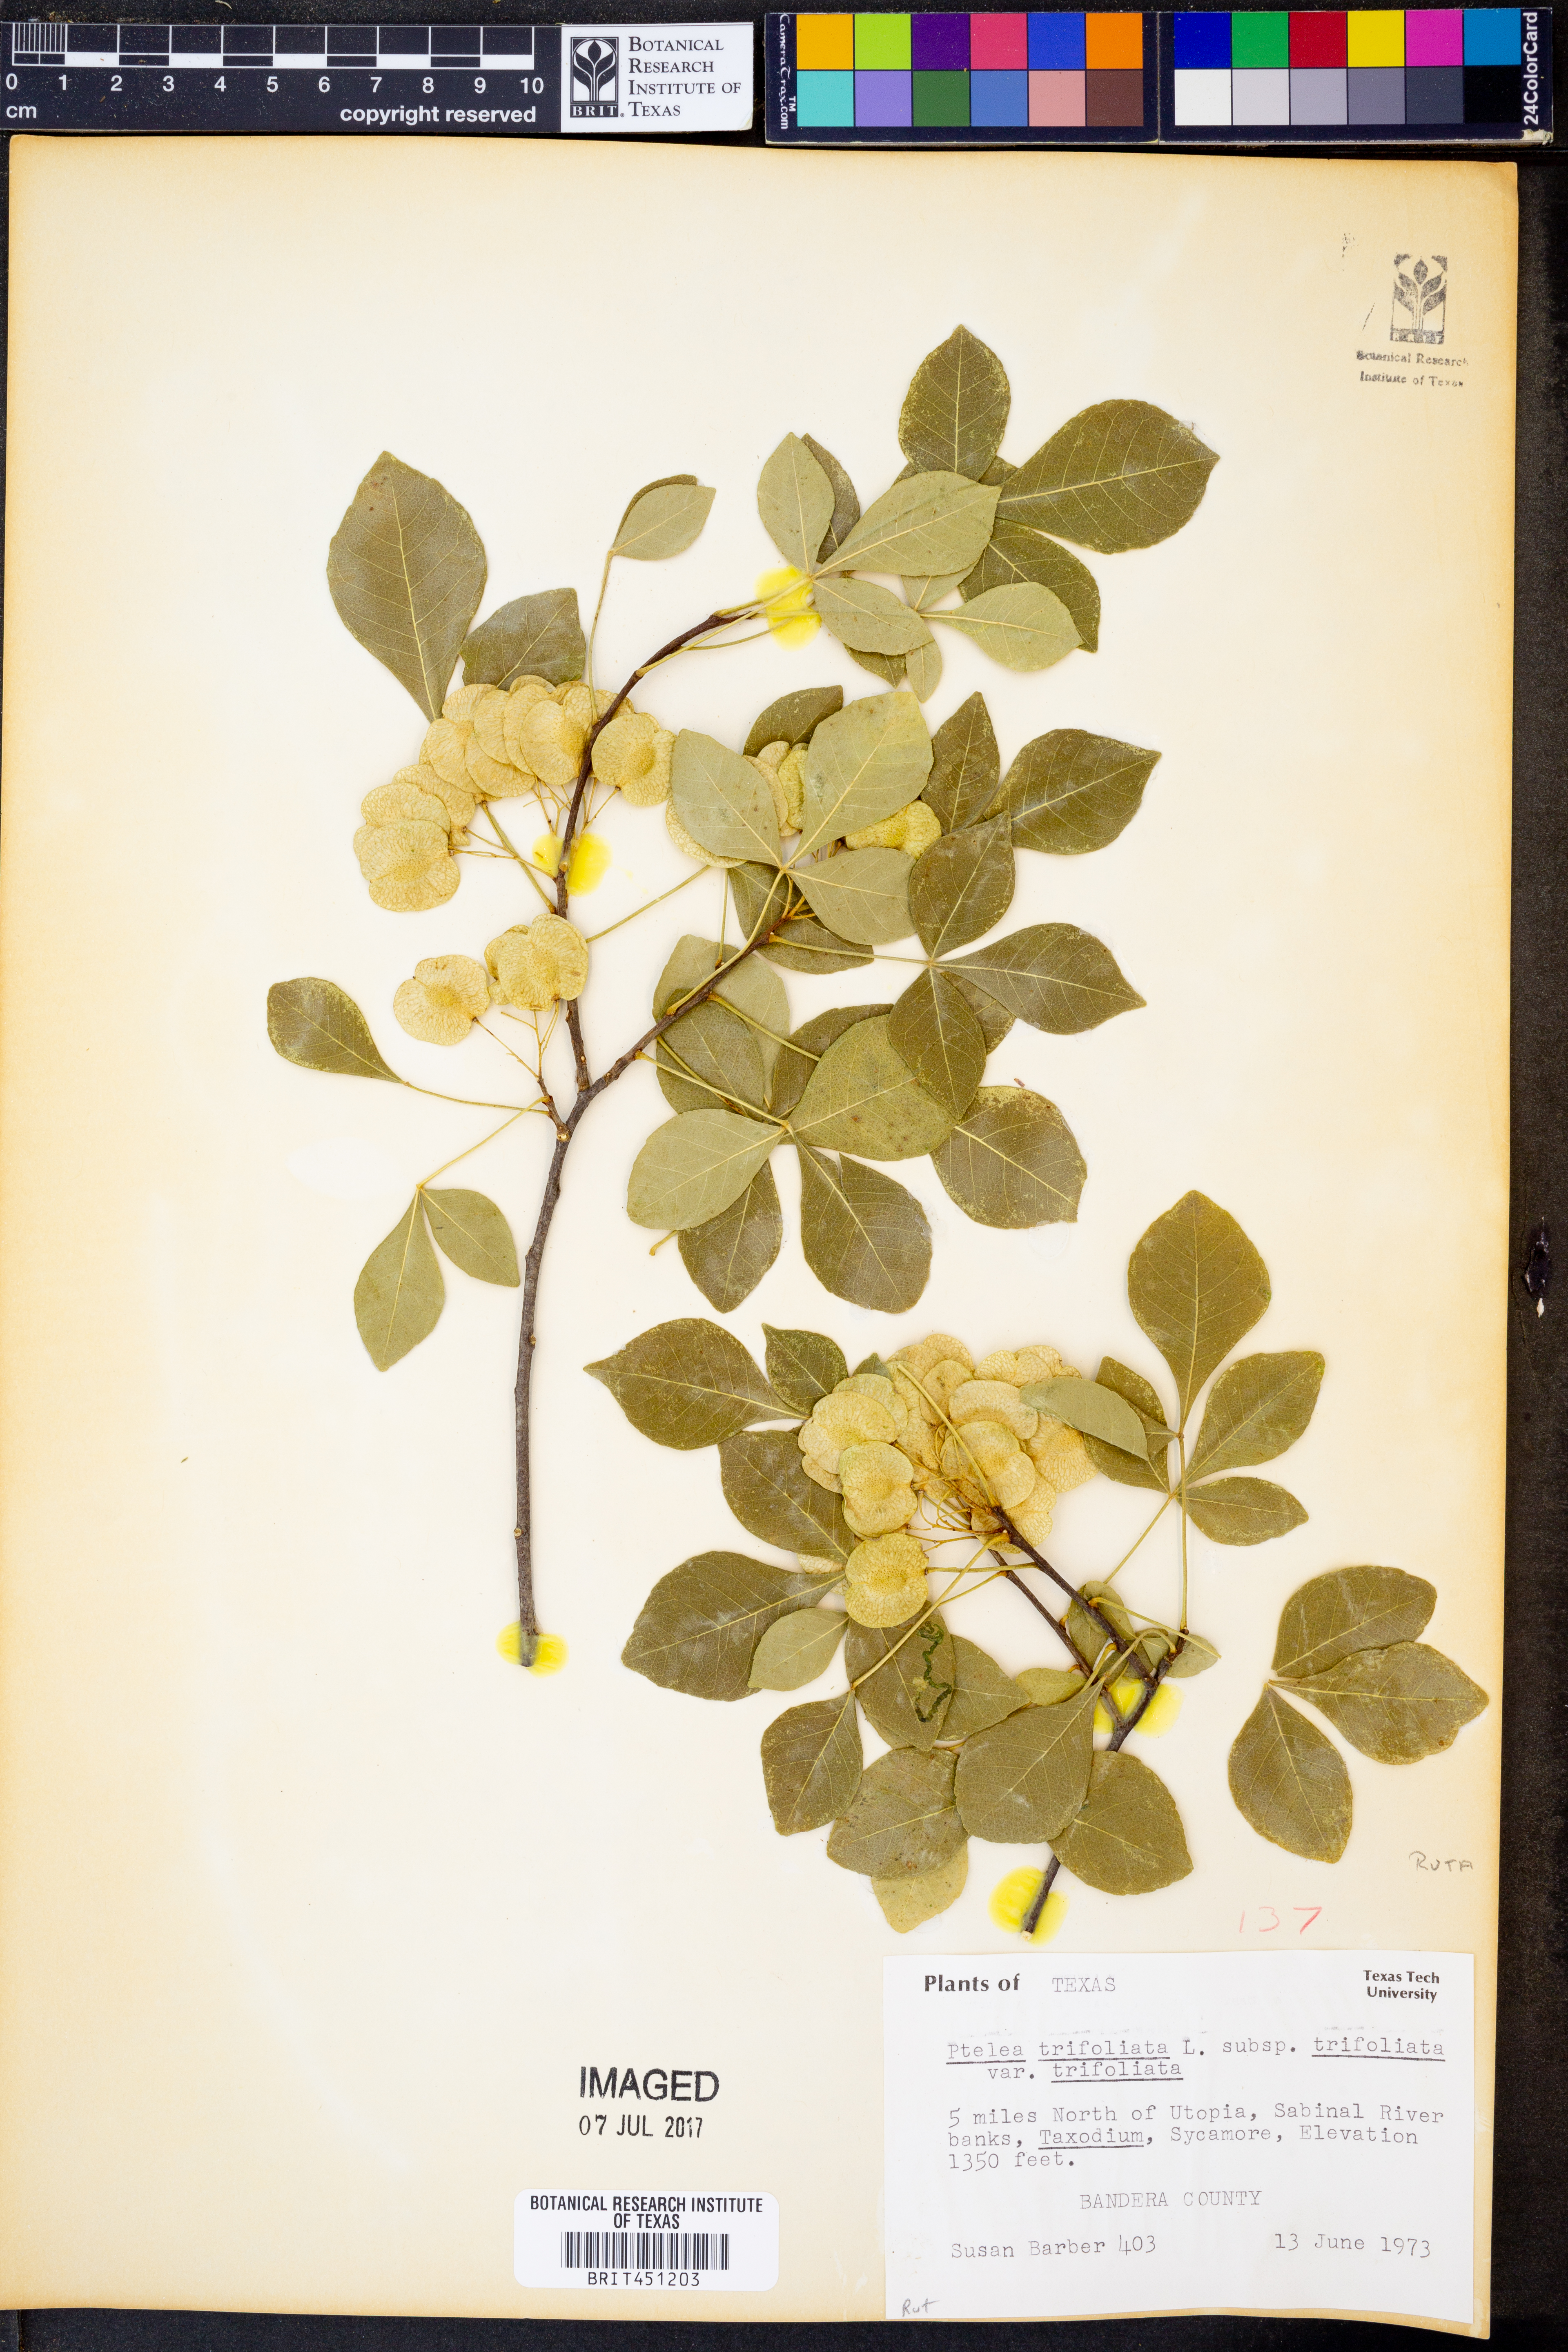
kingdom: Plantae
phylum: Tracheophyta
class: Magnoliopsida
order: Sapindales
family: Rutaceae
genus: Ptelea
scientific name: Ptelea trifoliata
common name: Common hop-tree
